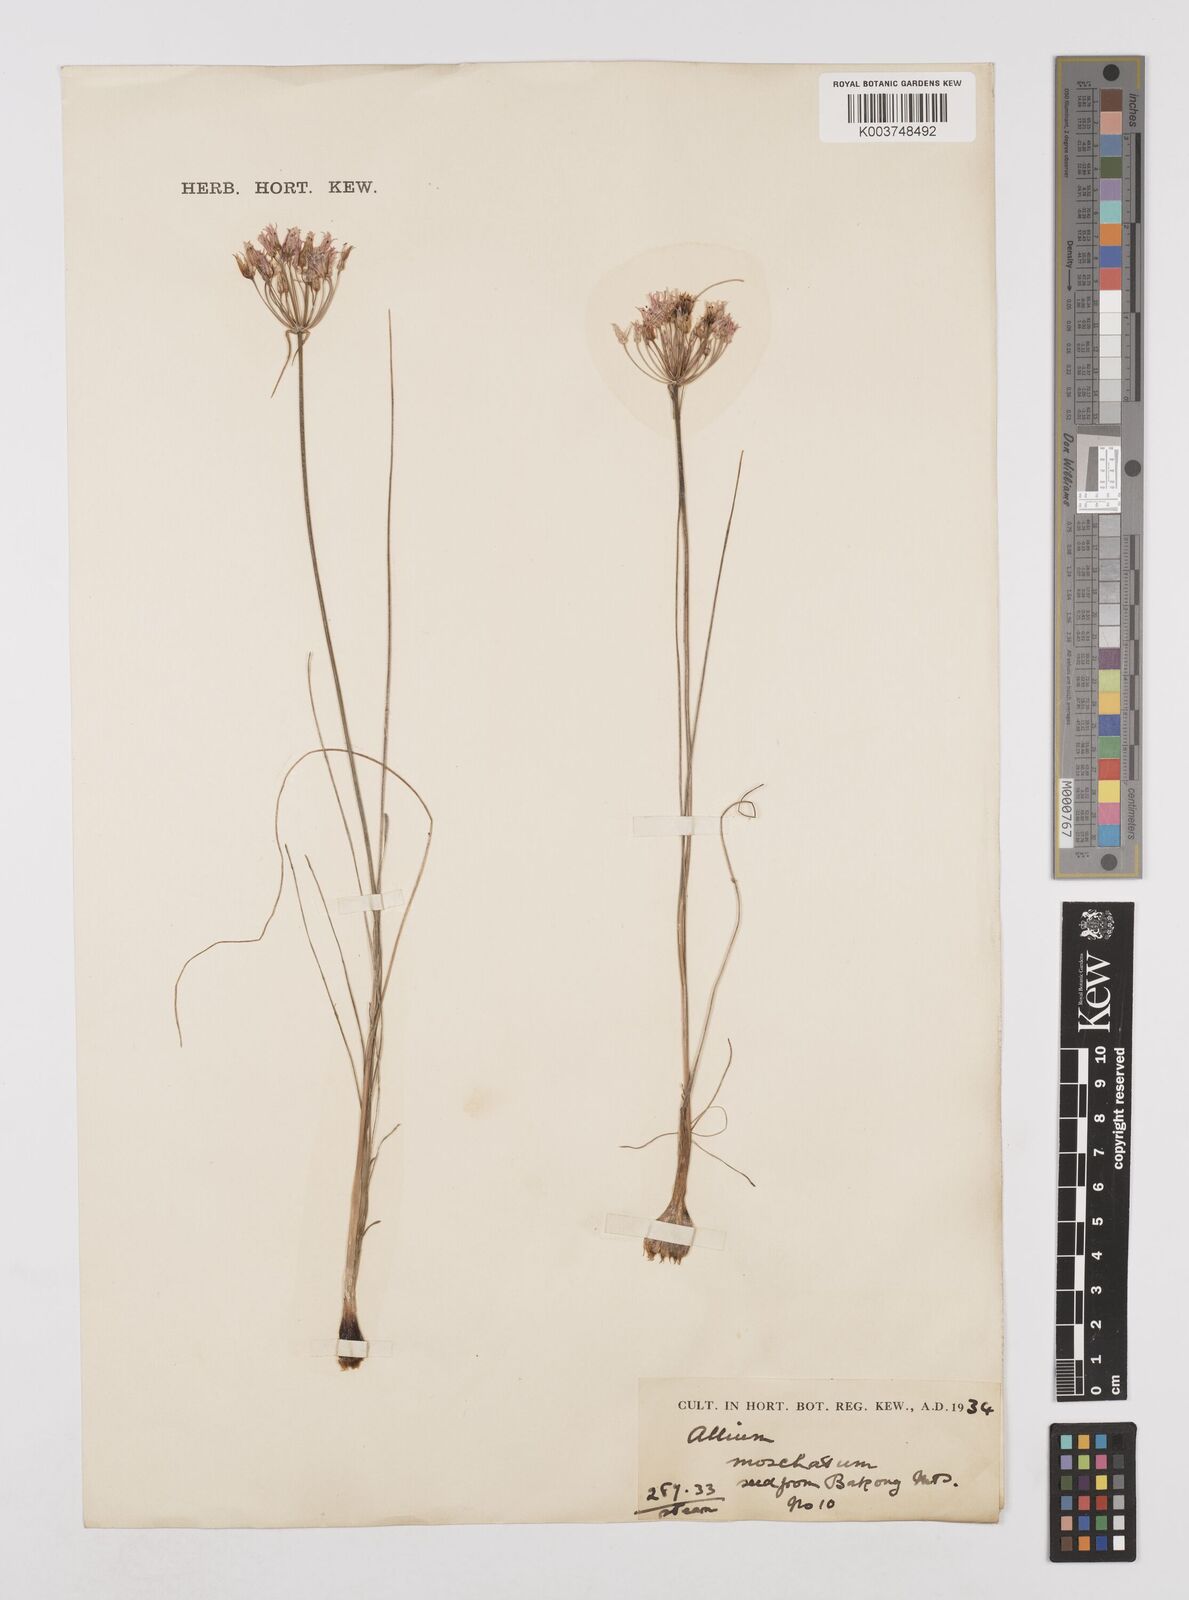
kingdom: Plantae
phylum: Tracheophyta
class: Liliopsida
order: Asparagales
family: Amaryllidaceae
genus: Allium
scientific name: Allium moschatum
